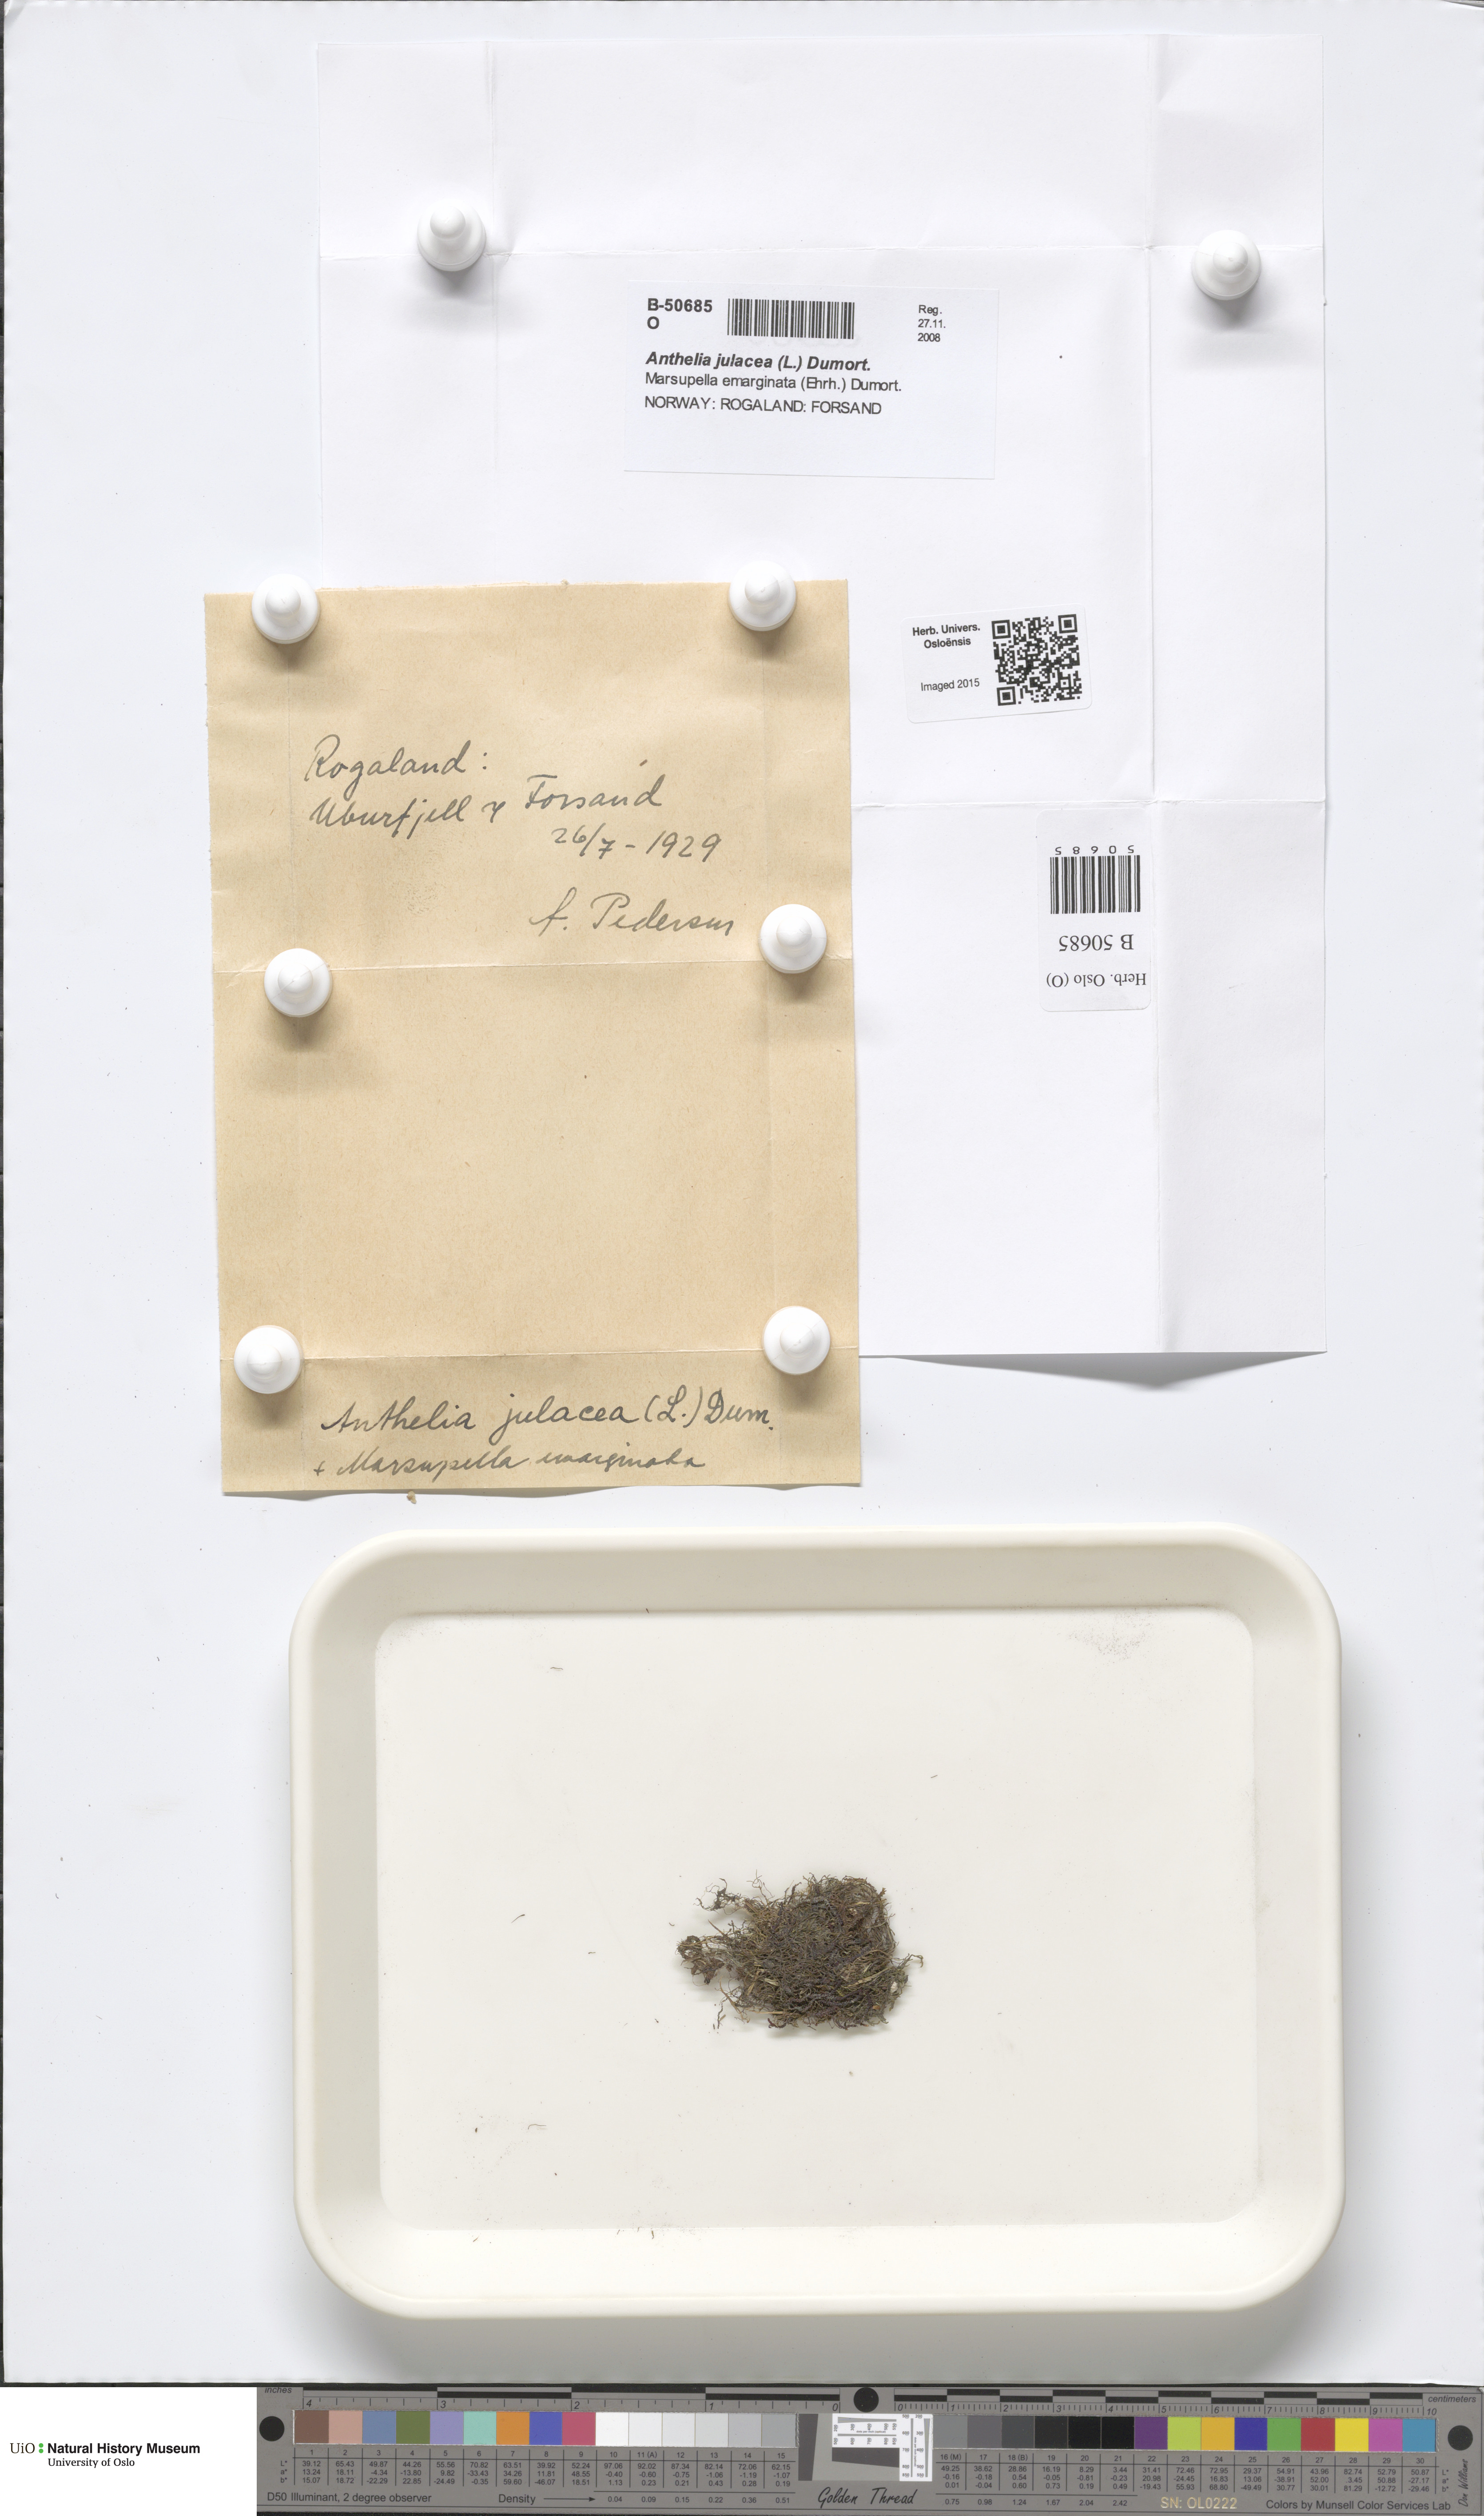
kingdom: Plantae
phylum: Marchantiophyta
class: Jungermanniopsida
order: Jungermanniales
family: Antheliaceae
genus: Anthelia
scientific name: Anthelia julacea
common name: Alpine silverwort
